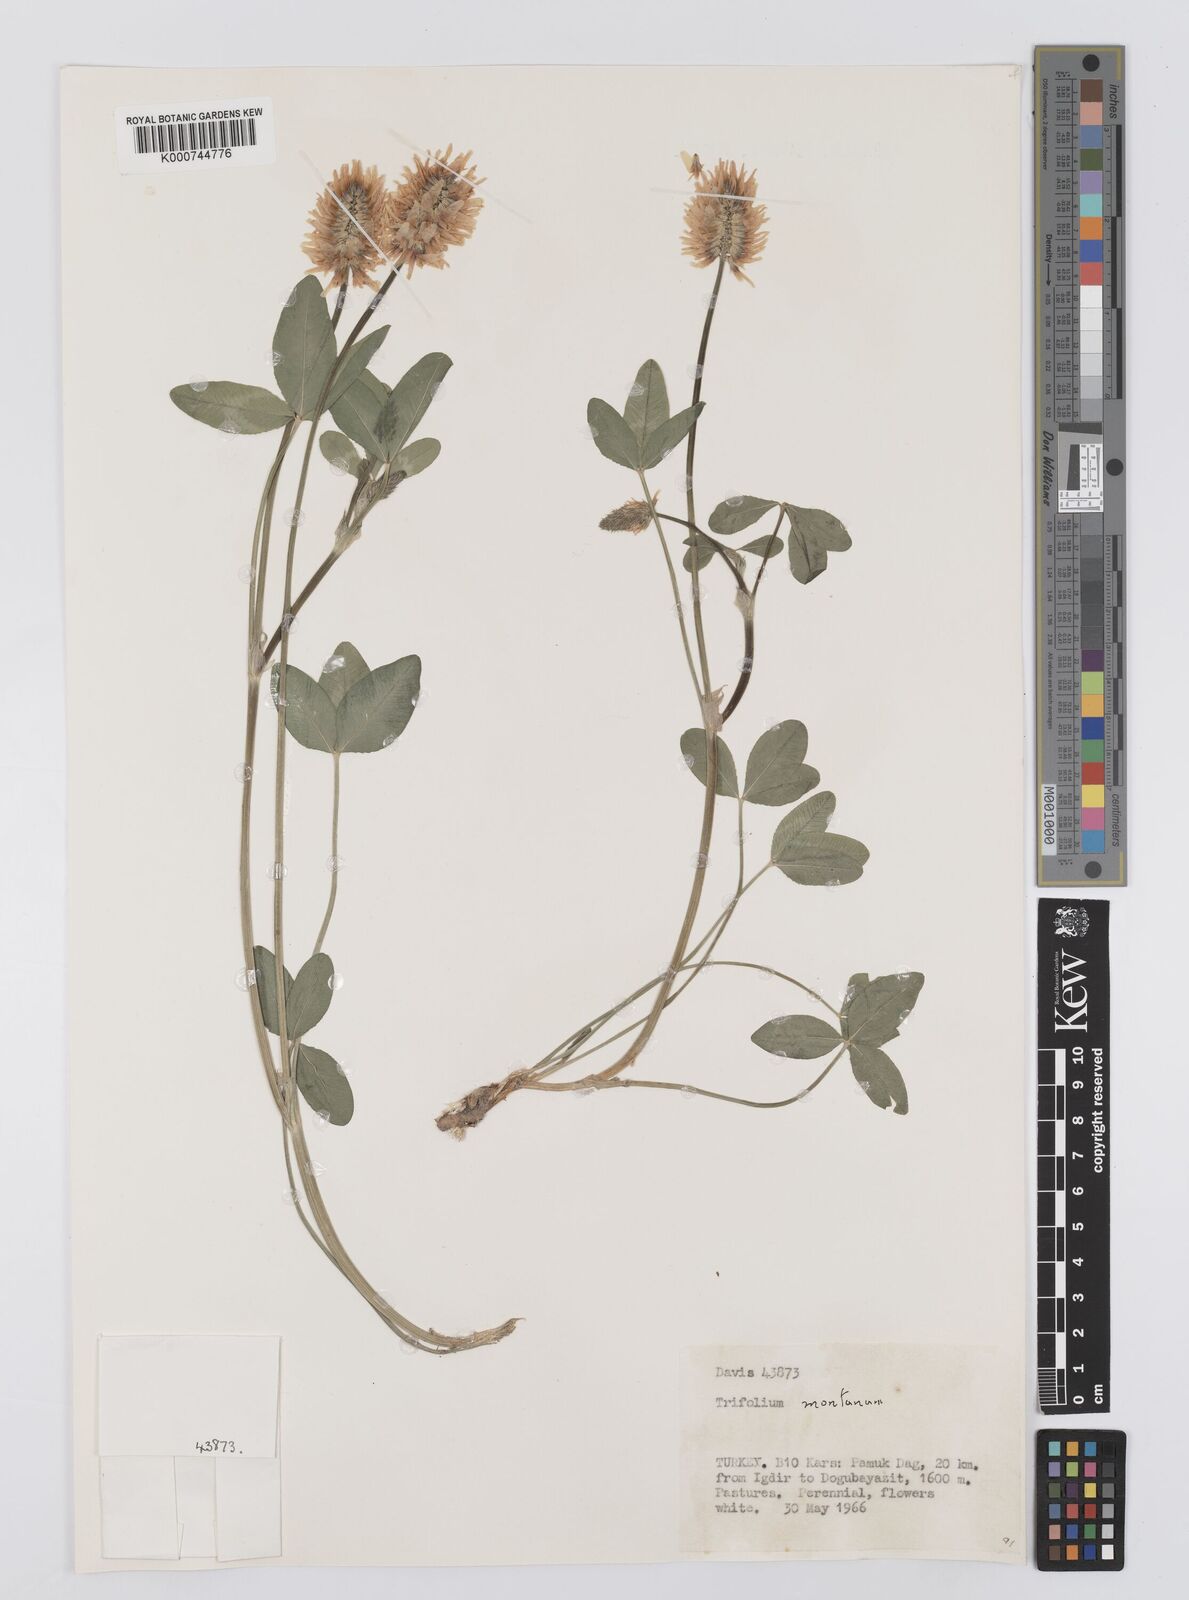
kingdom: Plantae
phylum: Tracheophyta
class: Magnoliopsida
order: Fabales
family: Fabaceae
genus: Trifolium
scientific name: Trifolium
